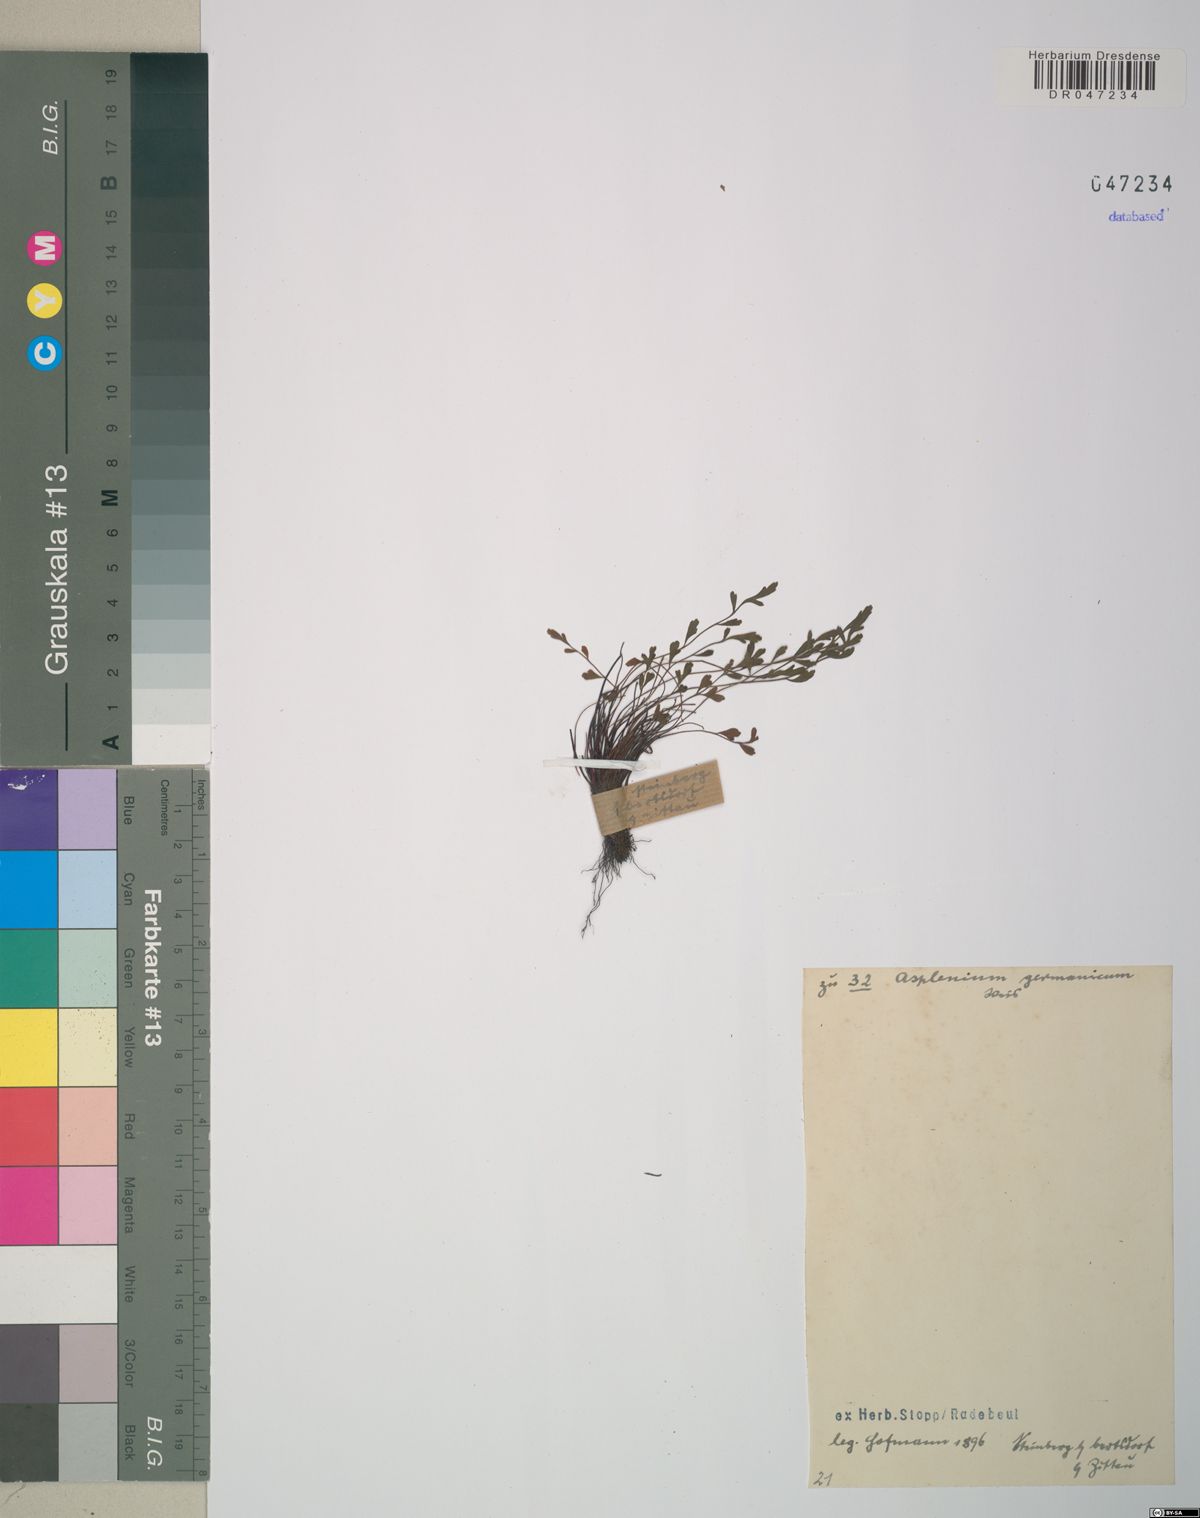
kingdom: Plantae
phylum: Tracheophyta
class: Polypodiopsida
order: Polypodiales
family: Aspleniaceae
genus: Asplenium
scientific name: Asplenium
